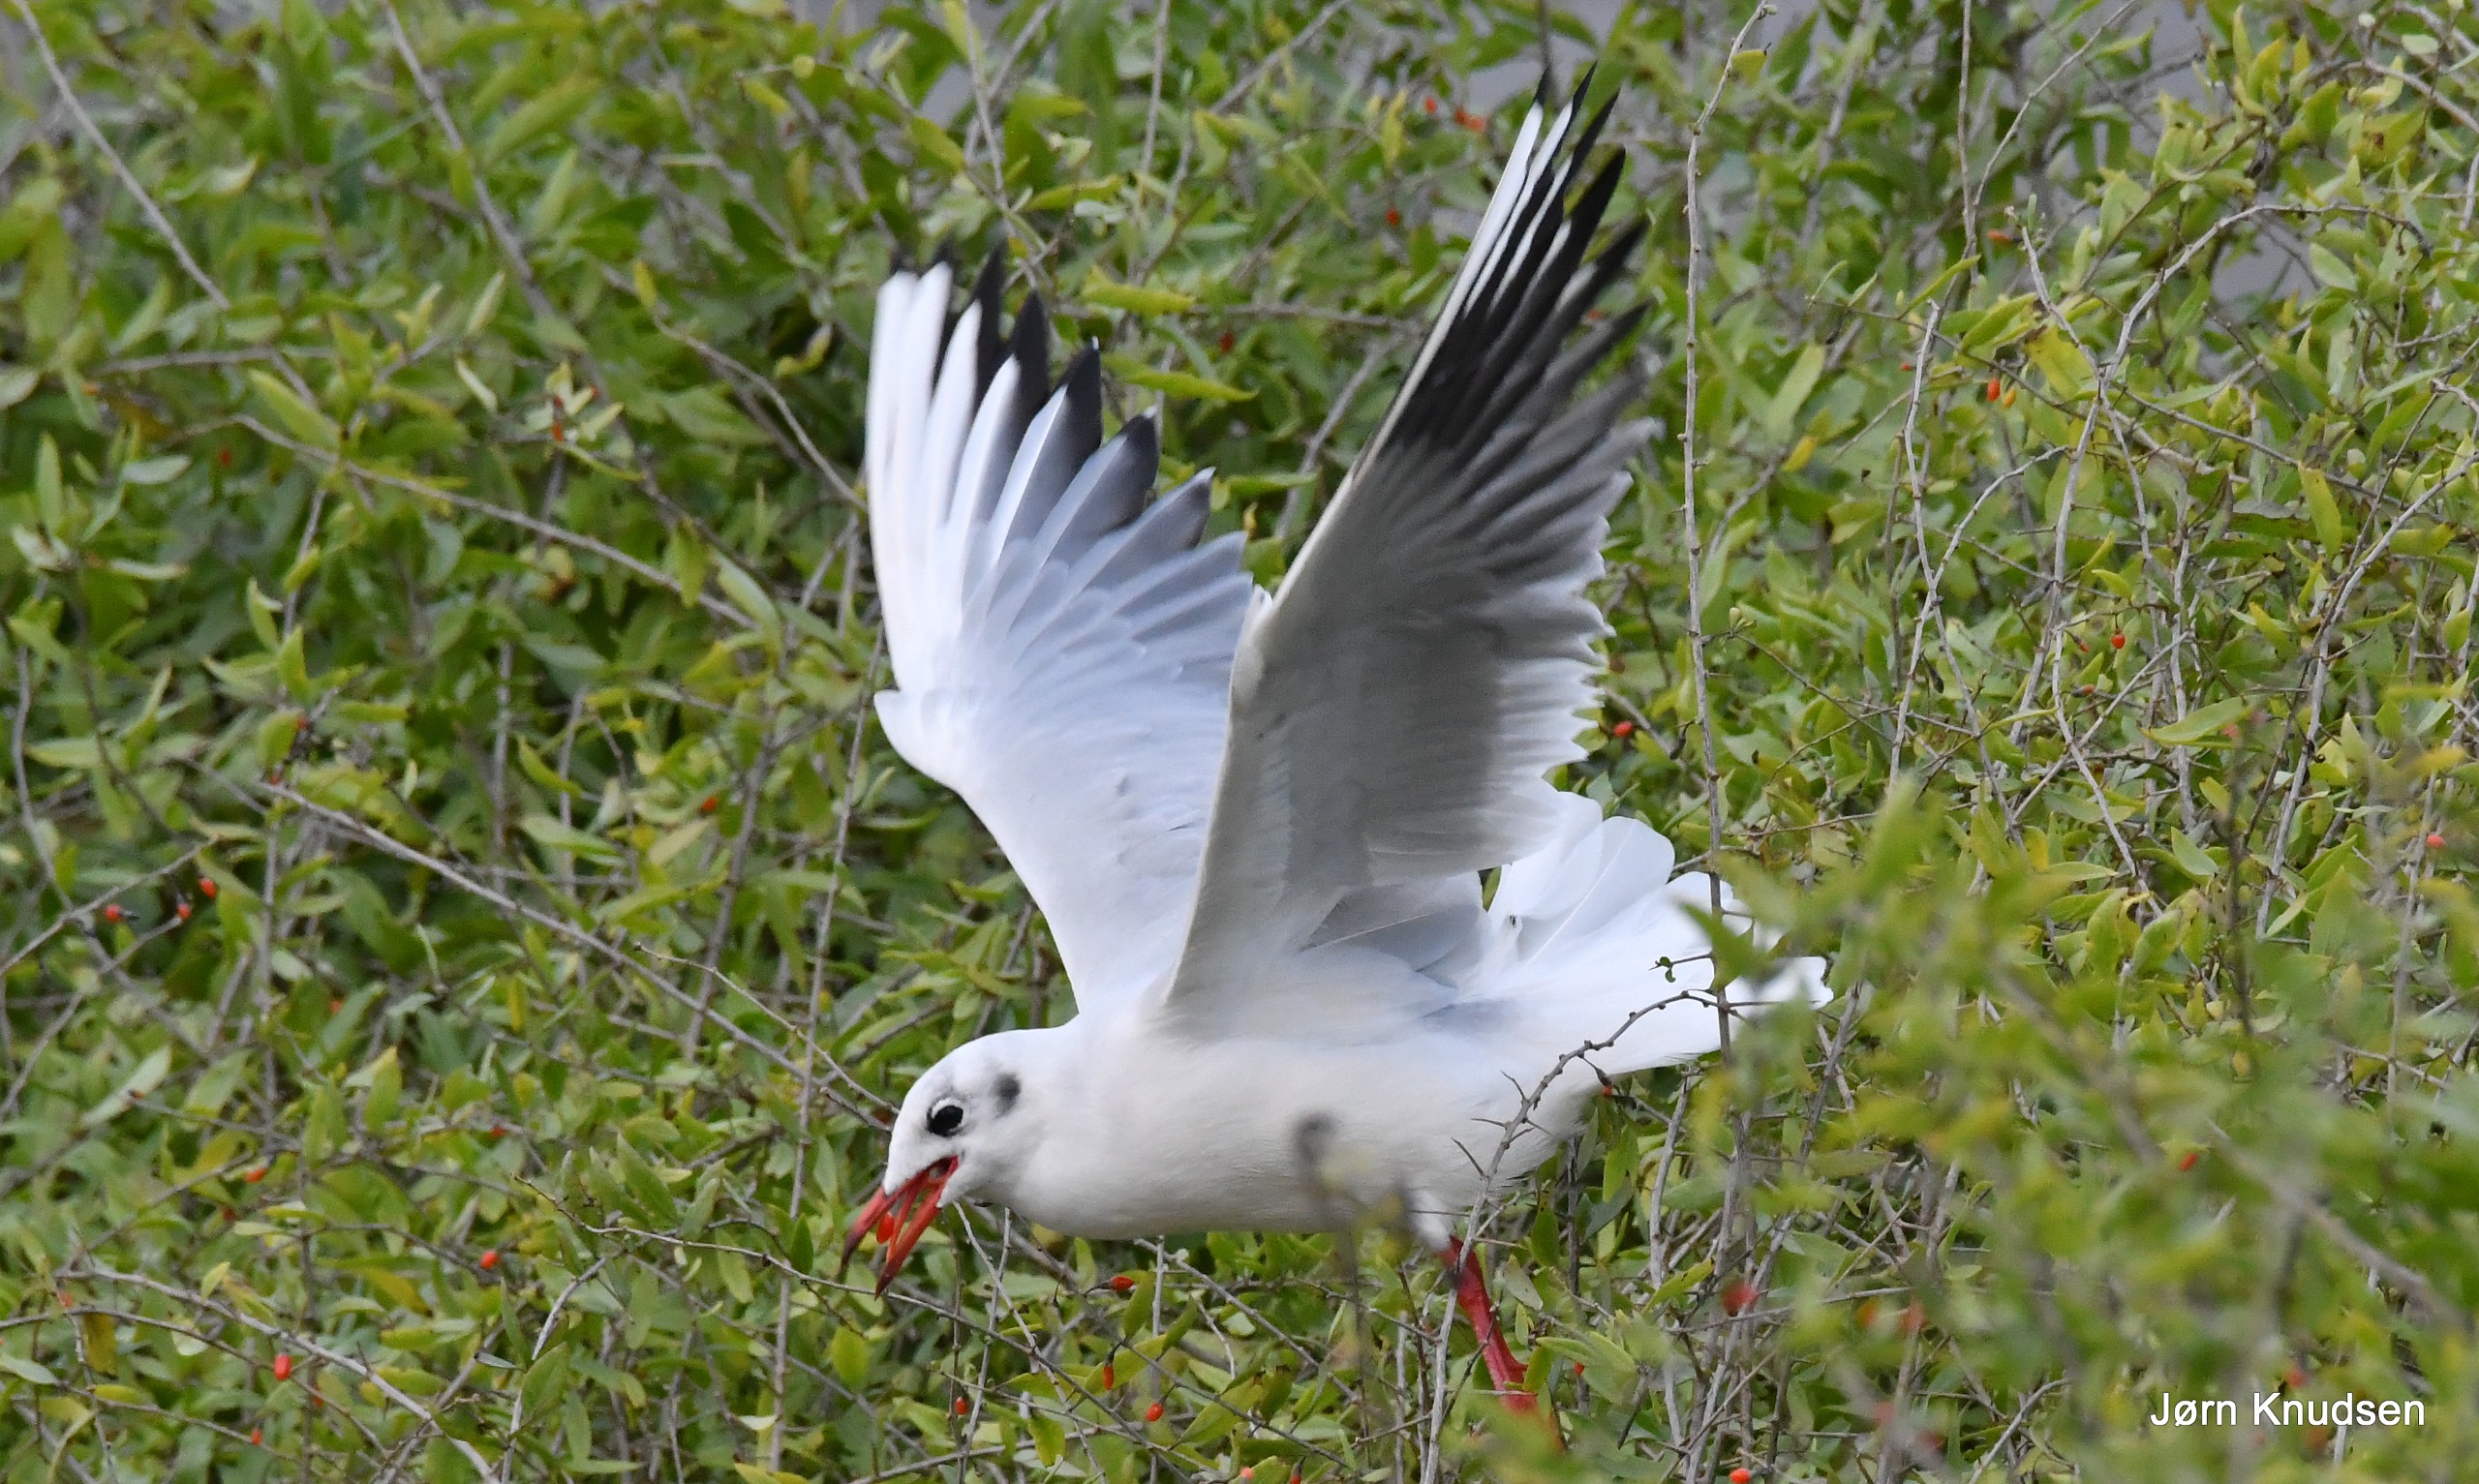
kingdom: Animalia
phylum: Chordata
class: Aves
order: Charadriiformes
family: Laridae
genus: Chroicocephalus
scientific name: Chroicocephalus ridibundus
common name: Hættemåge
